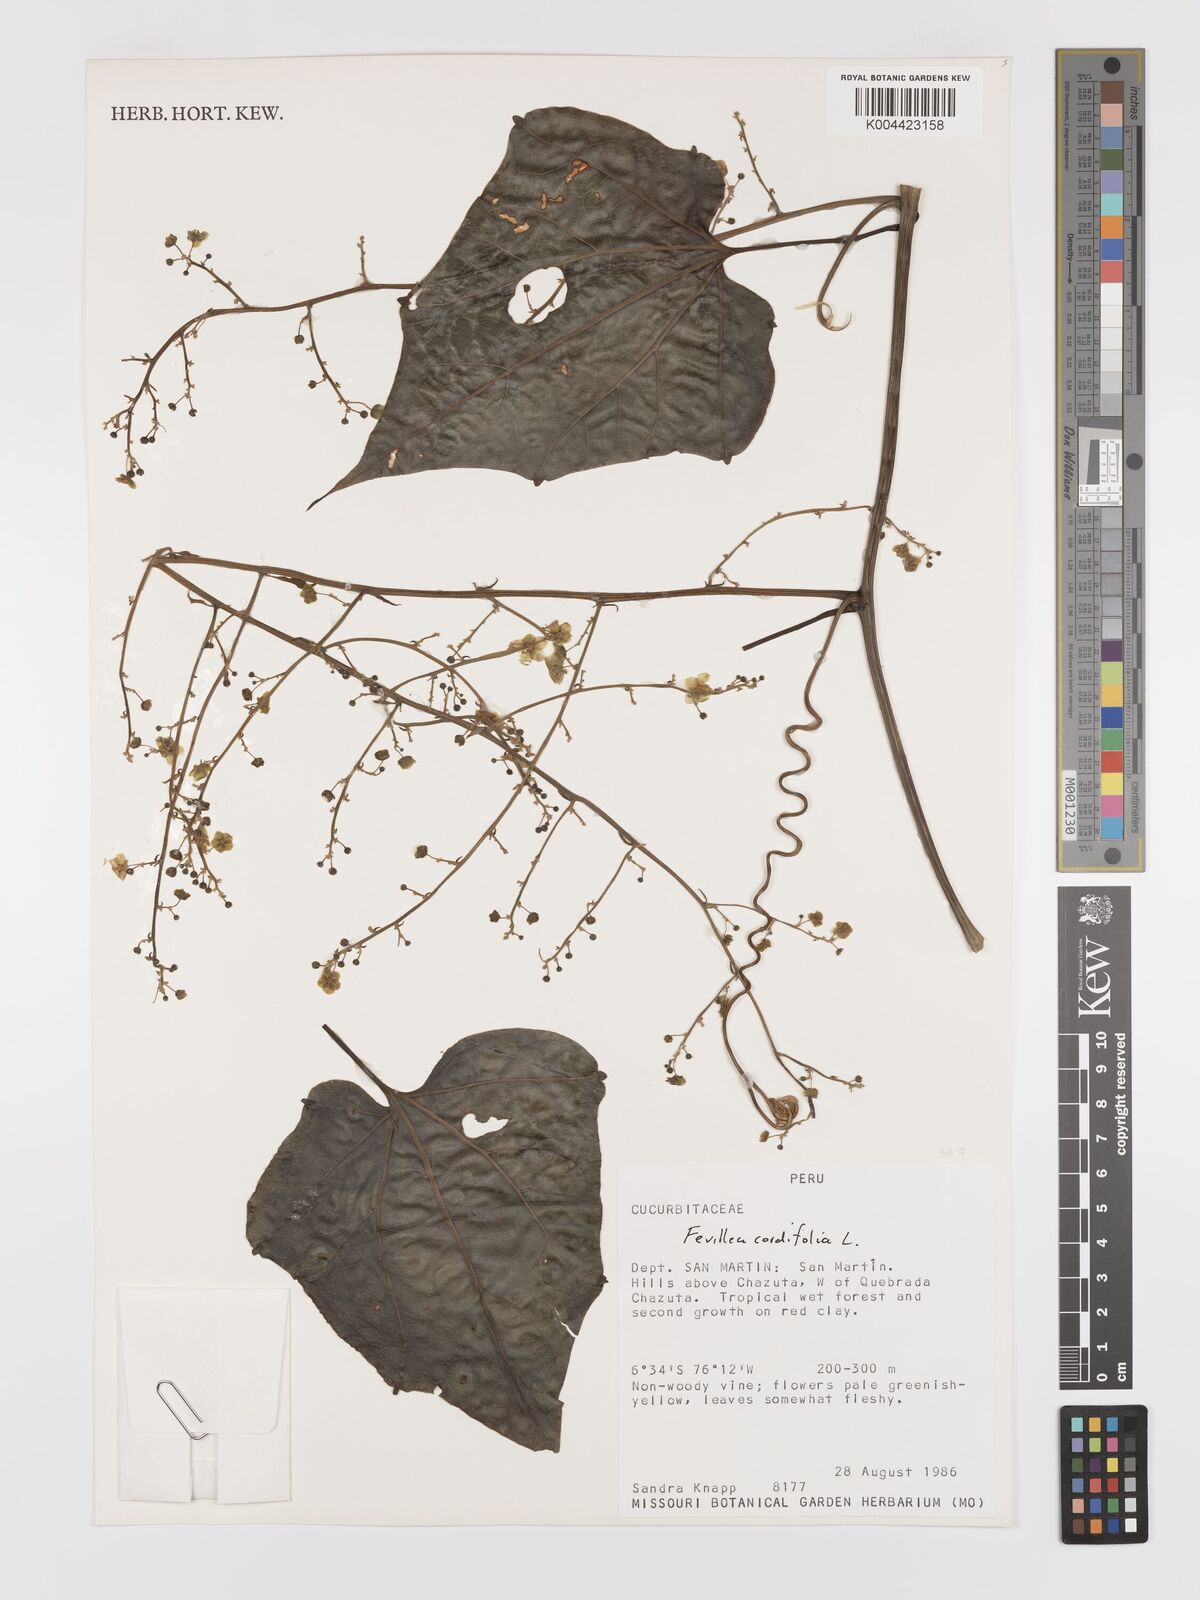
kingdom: Plantae
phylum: Tracheophyta
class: Magnoliopsida
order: Cucurbitales
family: Cucurbitaceae
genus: Fevillea
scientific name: Fevillea
